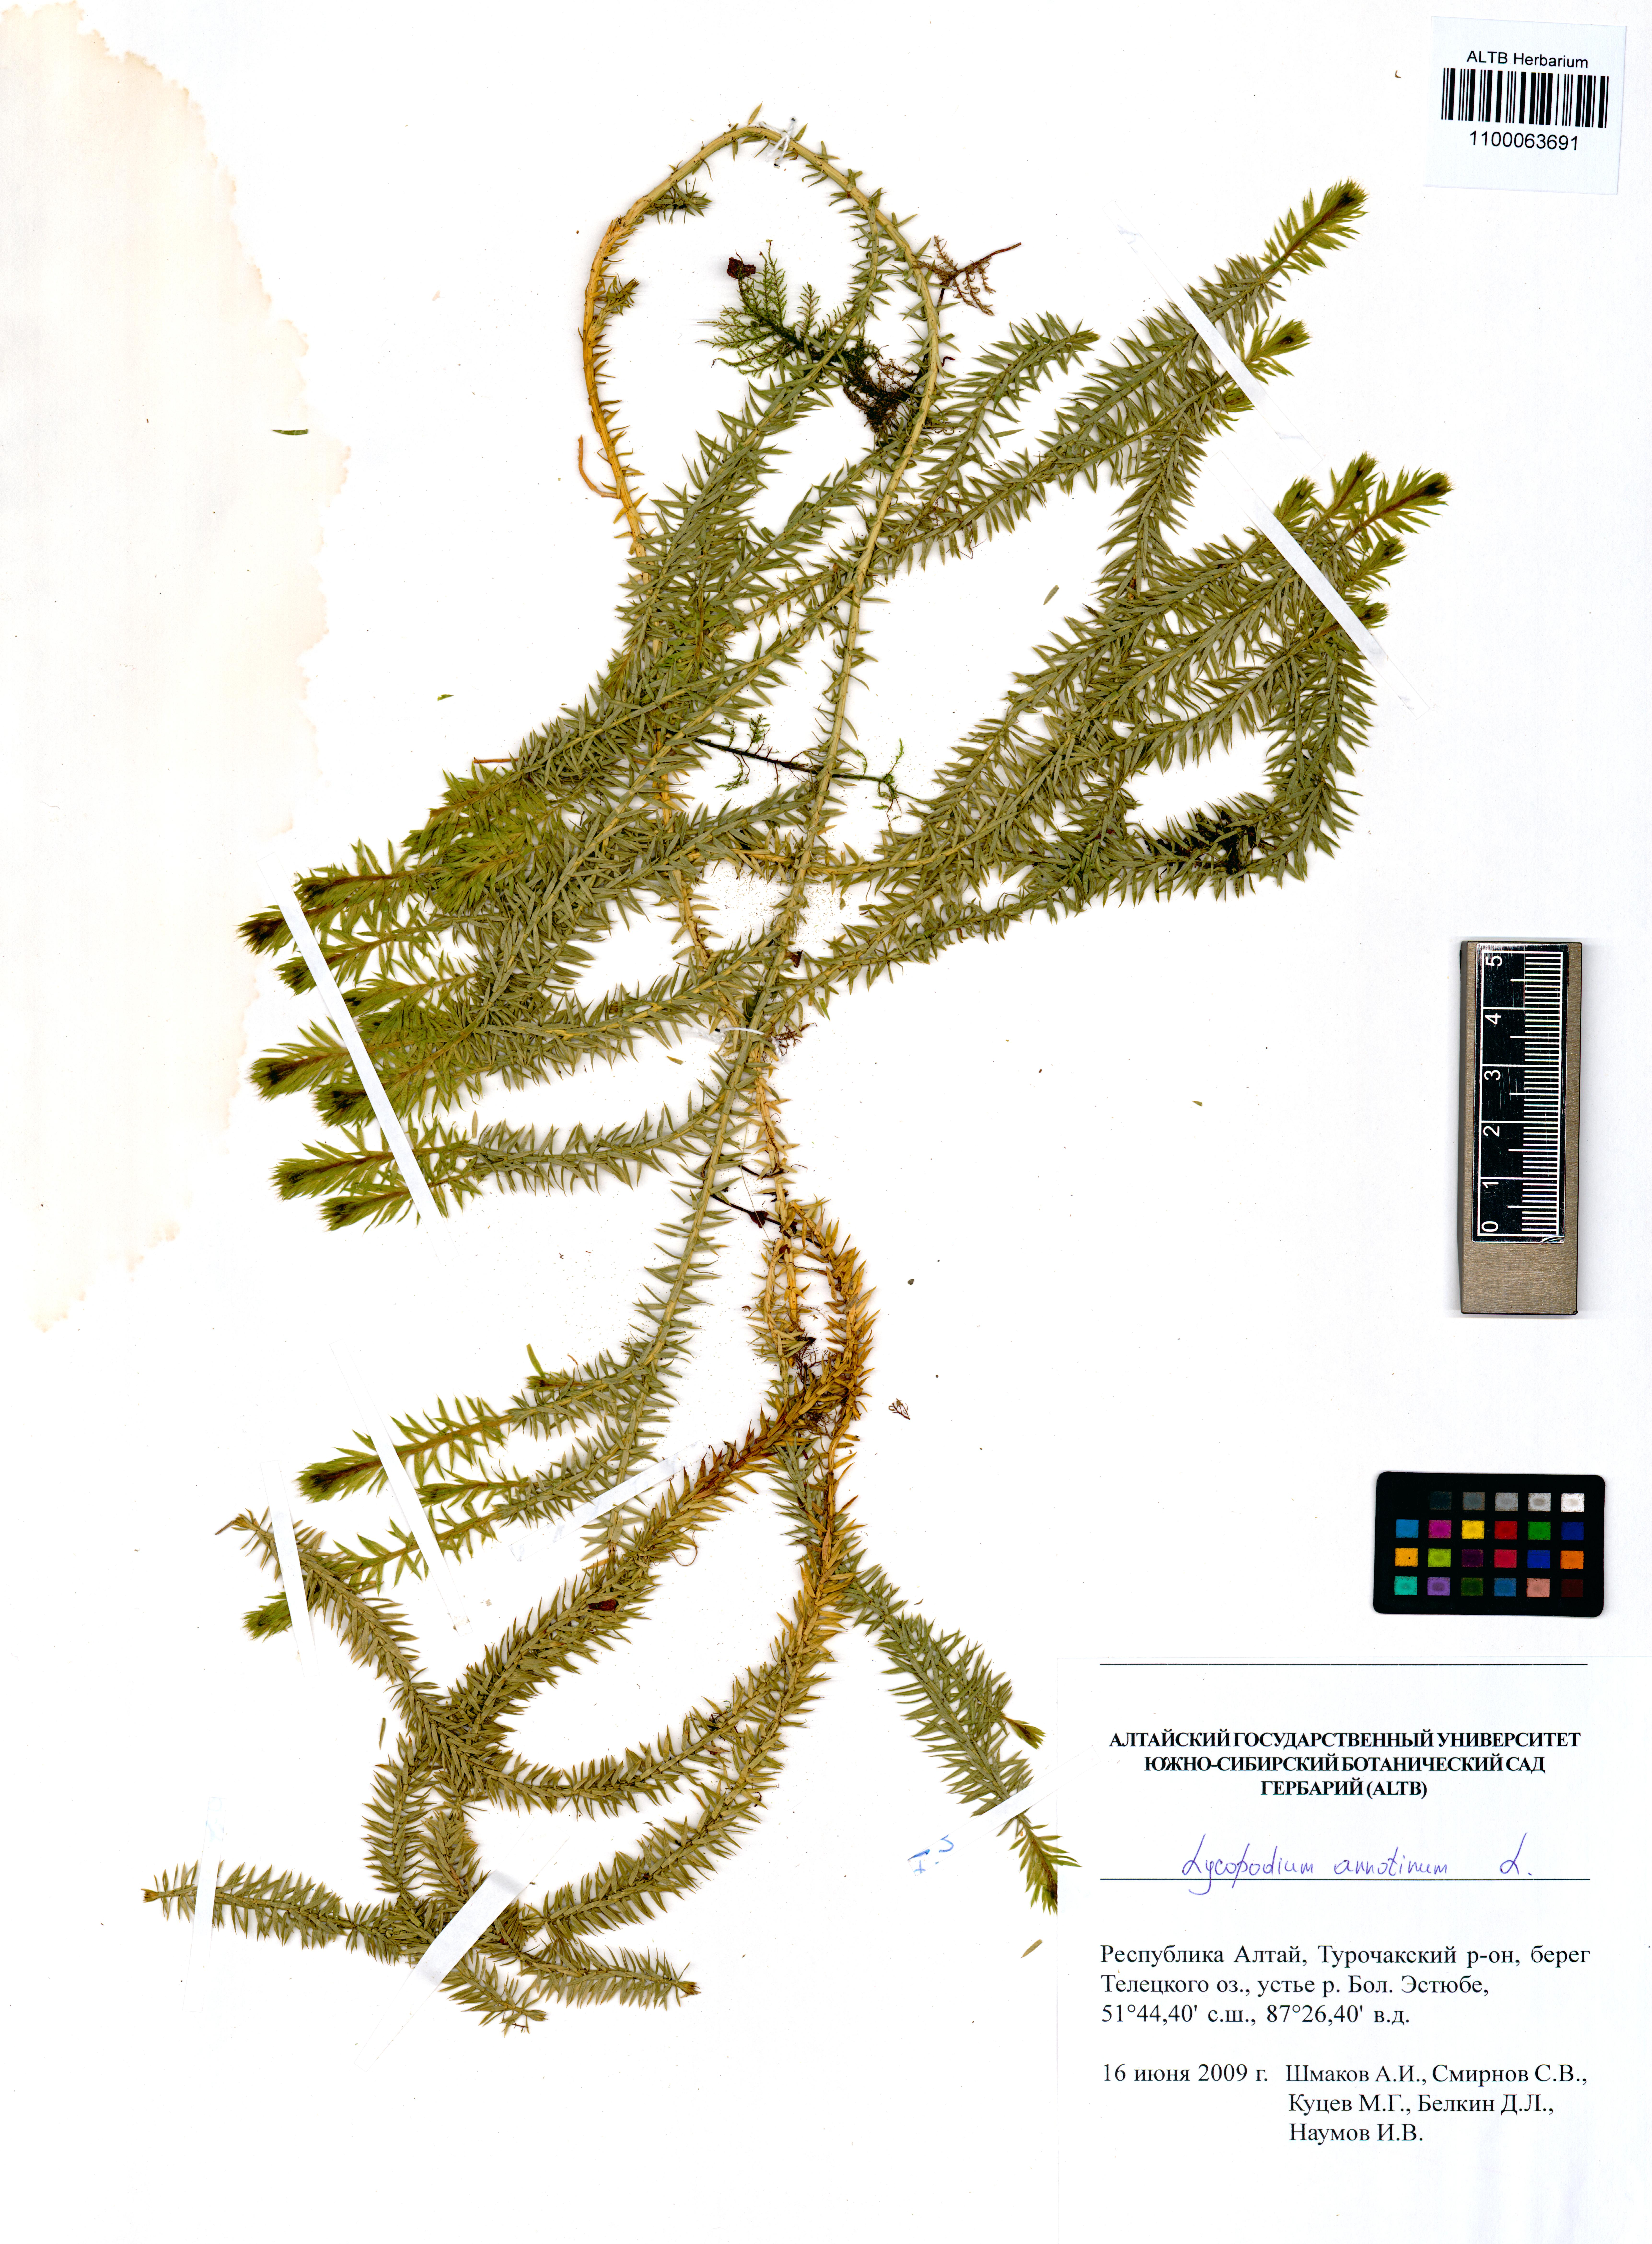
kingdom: Plantae
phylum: Tracheophyta
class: Lycopodiopsida
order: Lycopodiales
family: Lycopodiaceae
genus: Spinulum
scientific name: Spinulum annotinum
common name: Interrupted club-moss
